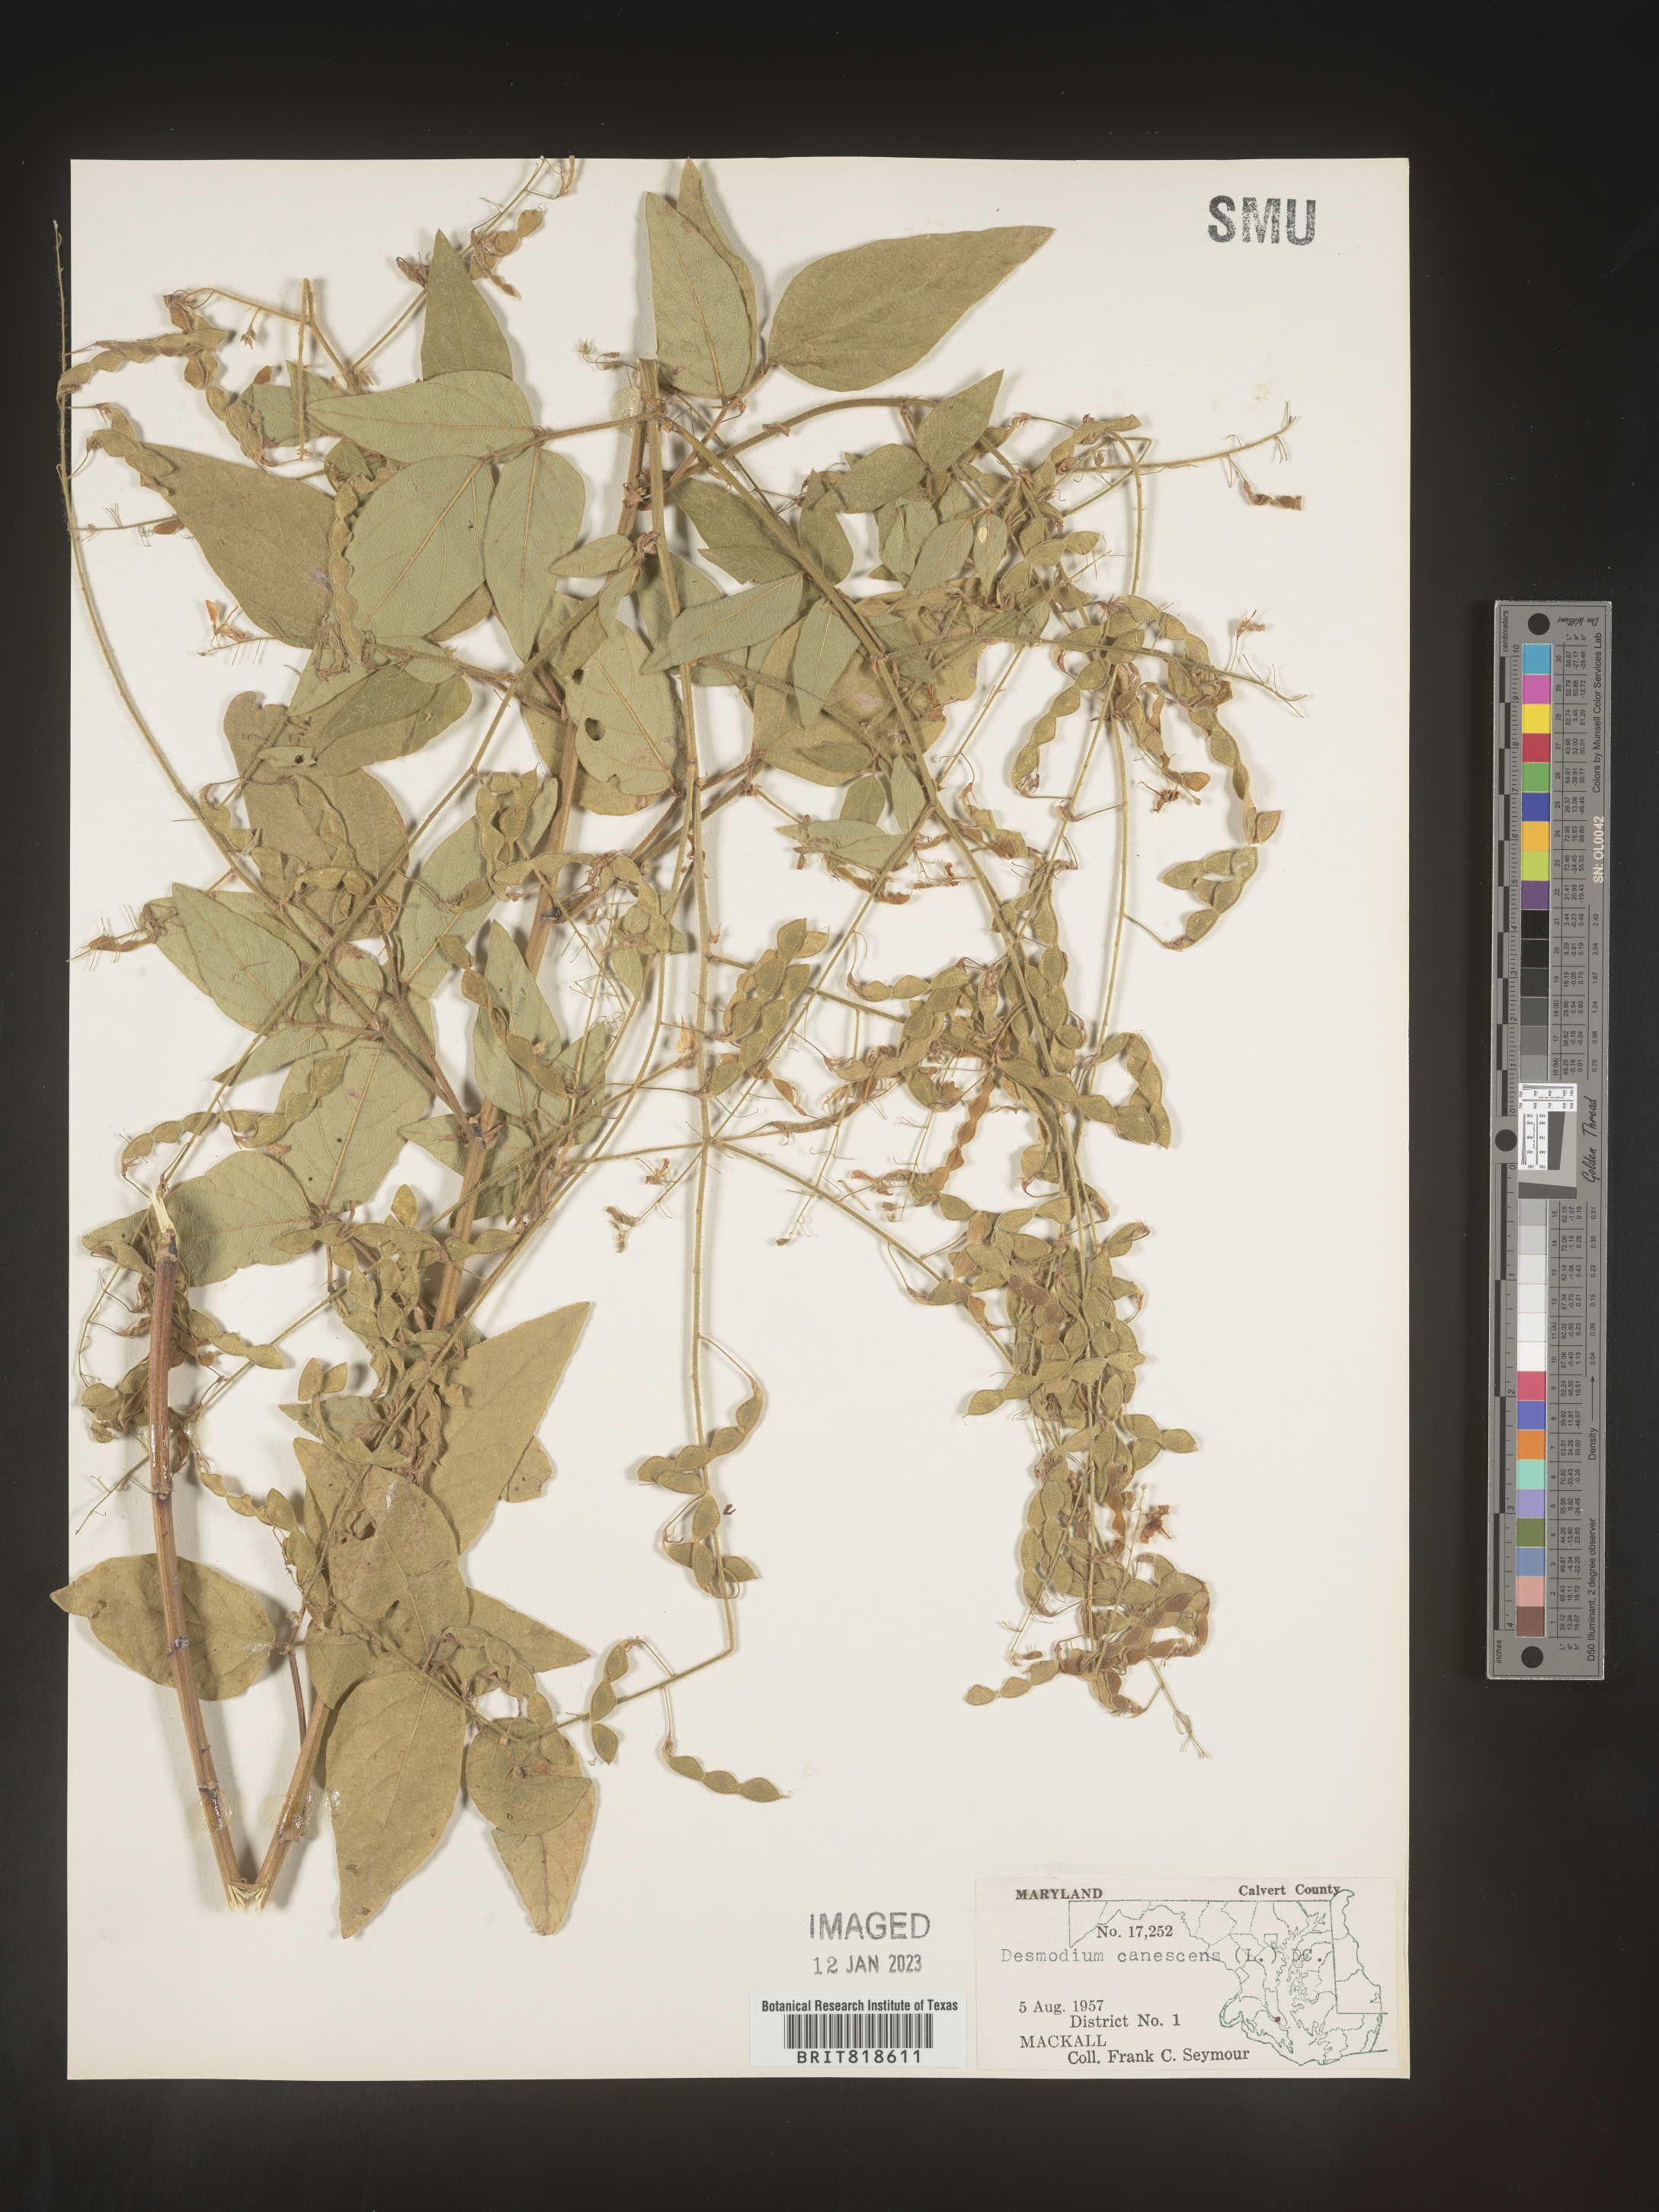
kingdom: Plantae
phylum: Tracheophyta
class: Magnoliopsida
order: Fabales
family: Fabaceae
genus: Desmodium
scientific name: Desmodium canescens
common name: Hoary tick-clover
